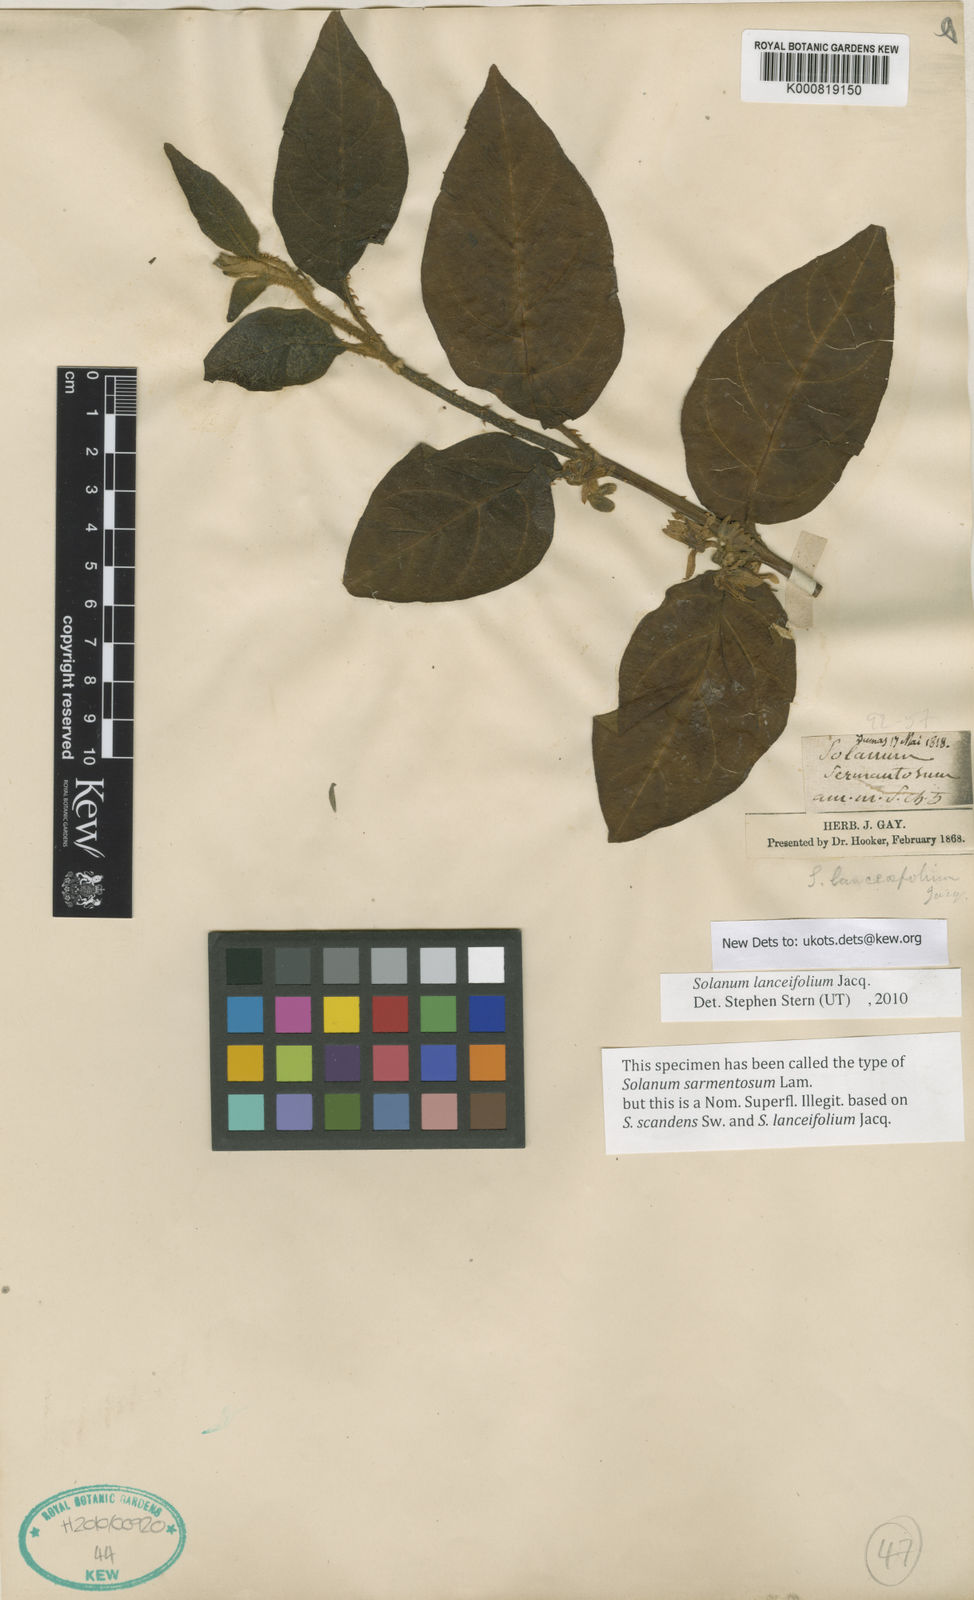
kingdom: Plantae
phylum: Tracheophyta
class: Magnoliopsida
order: Solanales
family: Solanaceae
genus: Solanum
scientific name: Solanum lanceifolium
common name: Lanceleaf nightshade
